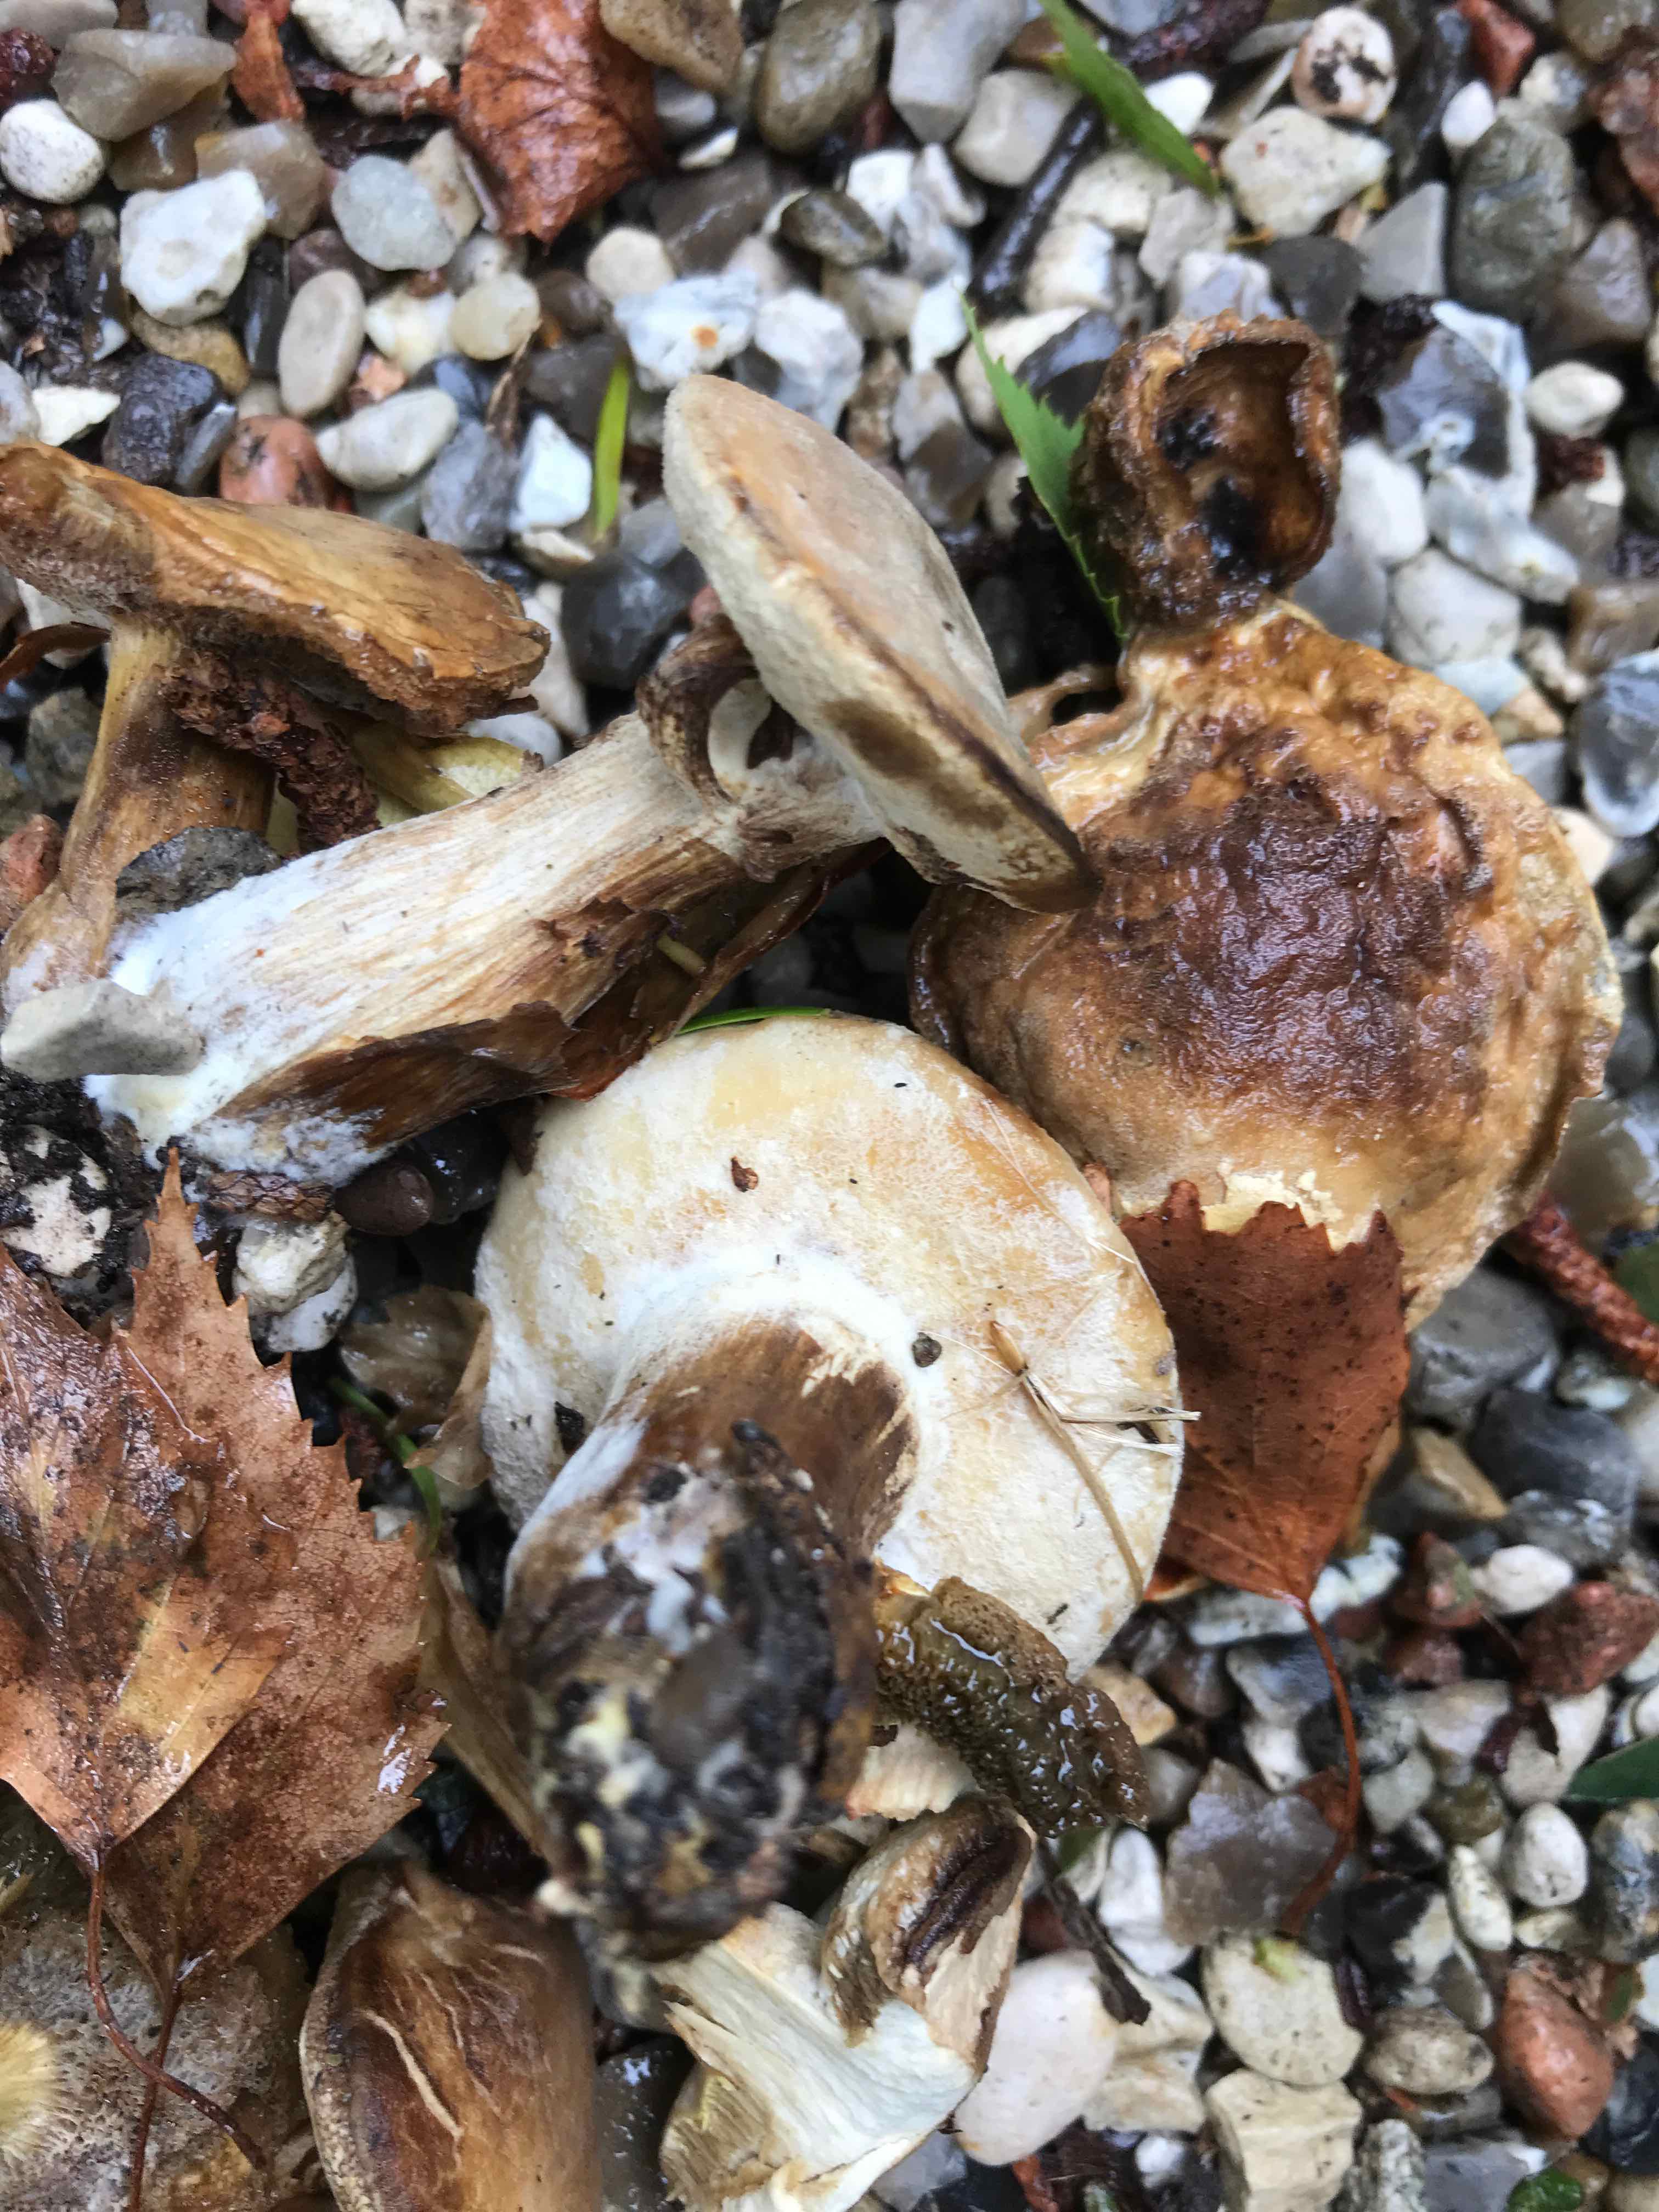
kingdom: Fungi
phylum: Basidiomycota
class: Agaricomycetes
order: Boletales
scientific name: Boletales
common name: rørhatordenen
